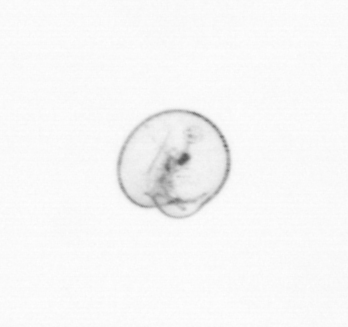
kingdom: Chromista
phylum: Myzozoa
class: Dinophyceae
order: Noctilucales
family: Noctilucaceae
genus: Noctiluca
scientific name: Noctiluca scintillans
